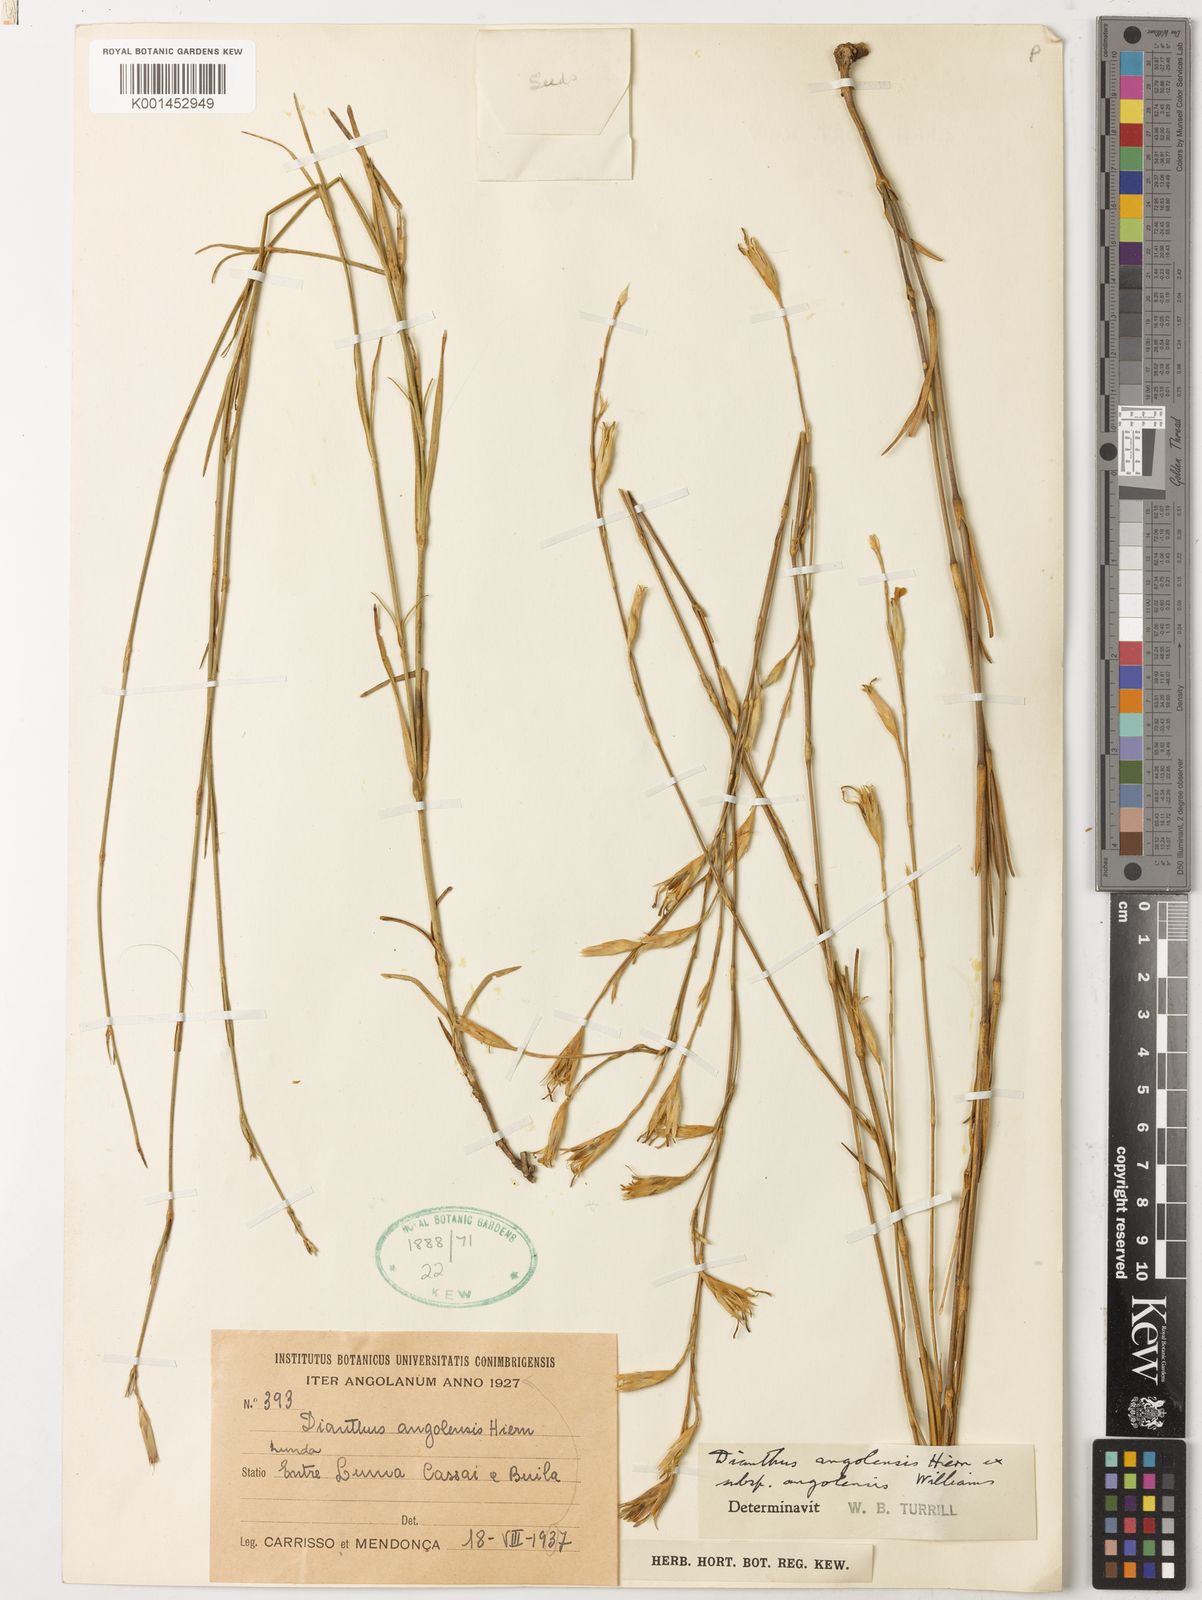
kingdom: Plantae
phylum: Tracheophyta
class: Magnoliopsida
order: Caryophyllales
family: Caryophyllaceae
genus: Dianthus
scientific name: Dianthus angolensis
